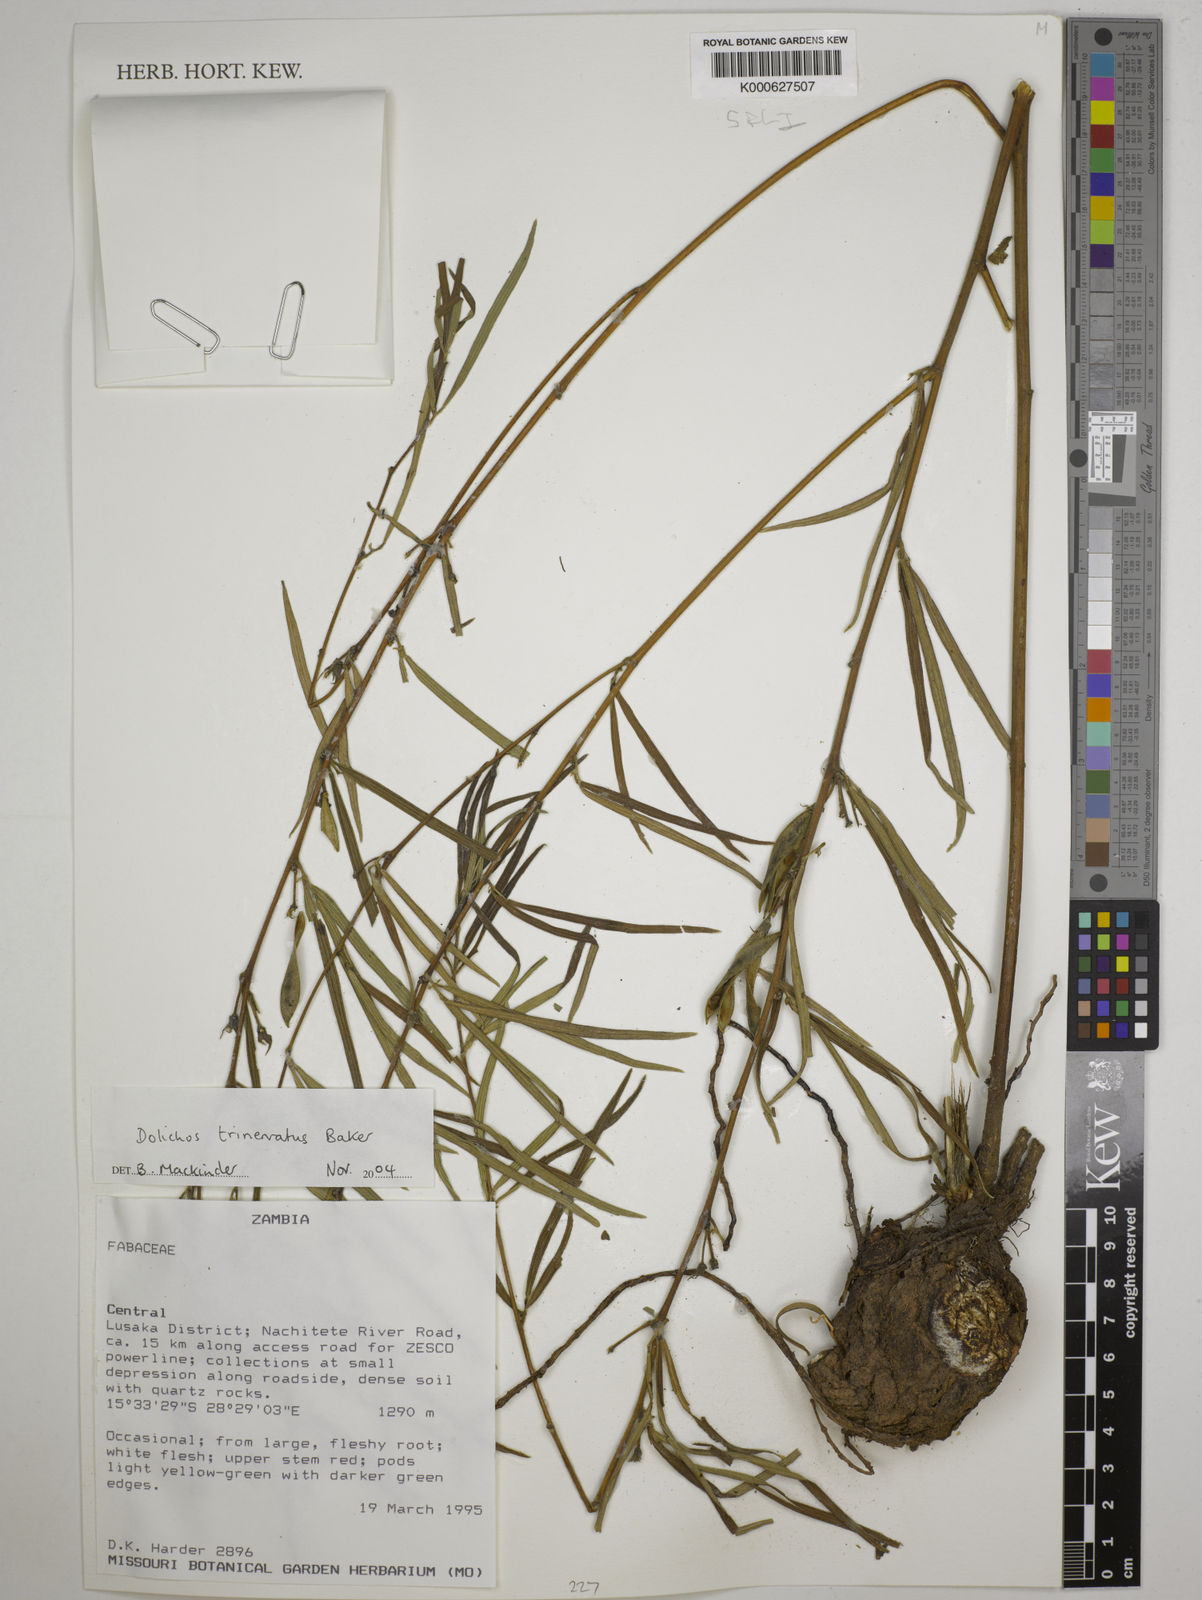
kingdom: Plantae
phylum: Tracheophyta
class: Magnoliopsida
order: Fabales
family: Fabaceae
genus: Dolichos
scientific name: Dolichos trinervatus
